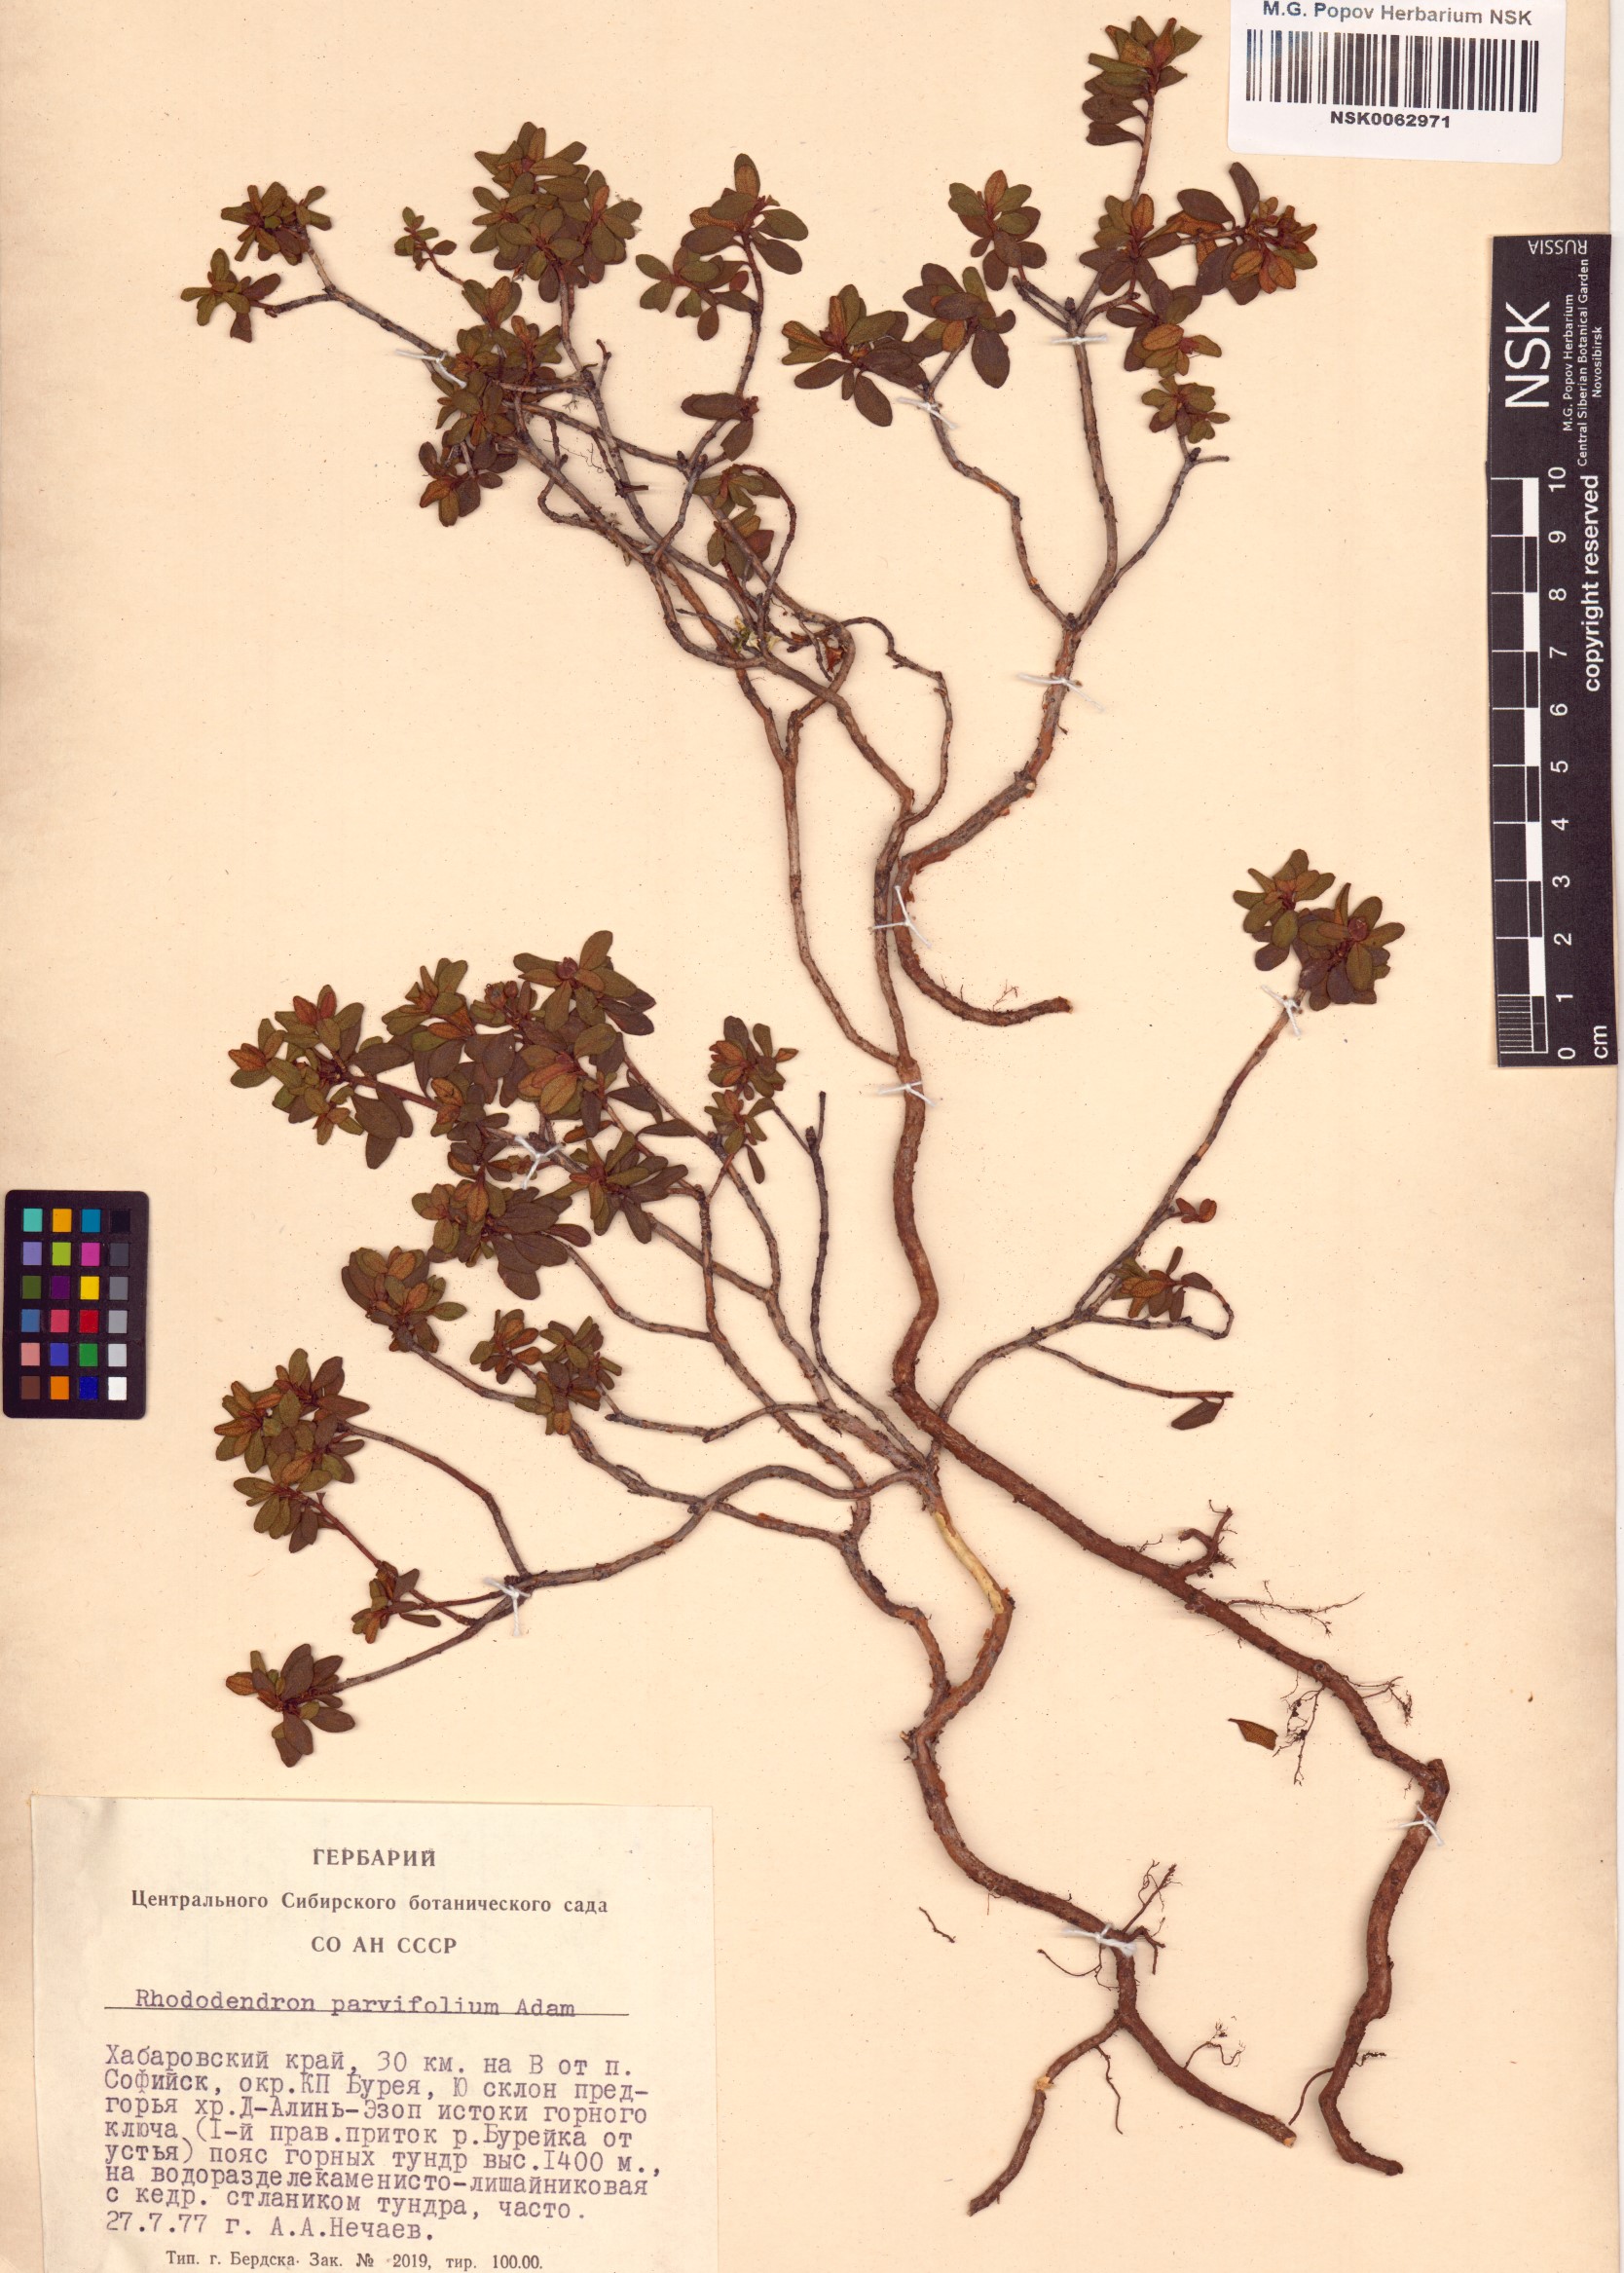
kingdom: Plantae
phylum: Tracheophyta
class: Magnoliopsida
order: Ericales
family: Ericaceae
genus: Rhododendron
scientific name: Rhododendron parvifolium
